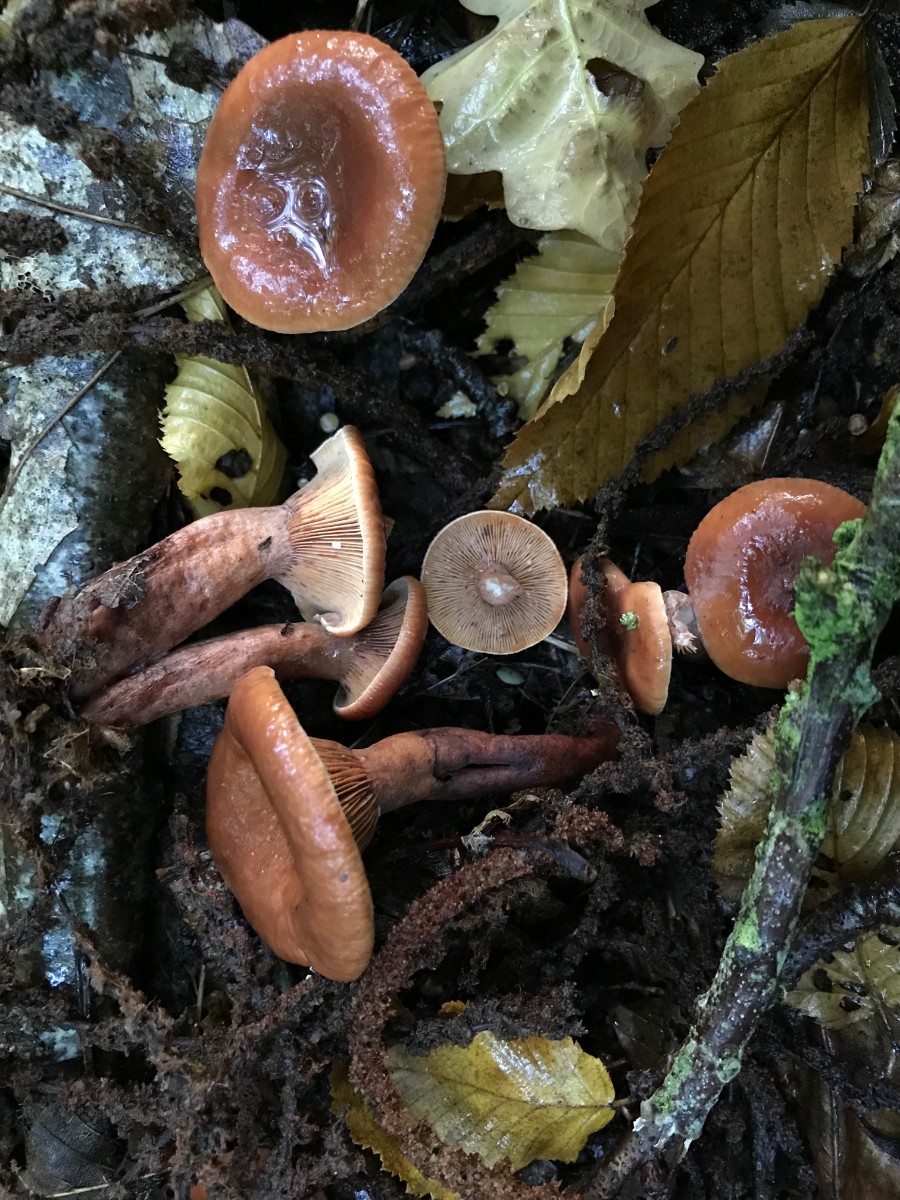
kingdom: Fungi
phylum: Basidiomycota
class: Agaricomycetes
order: Russulales
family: Russulaceae
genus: Lactarius
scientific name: Lactarius camphoratus
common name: kamfer-mælkehat
